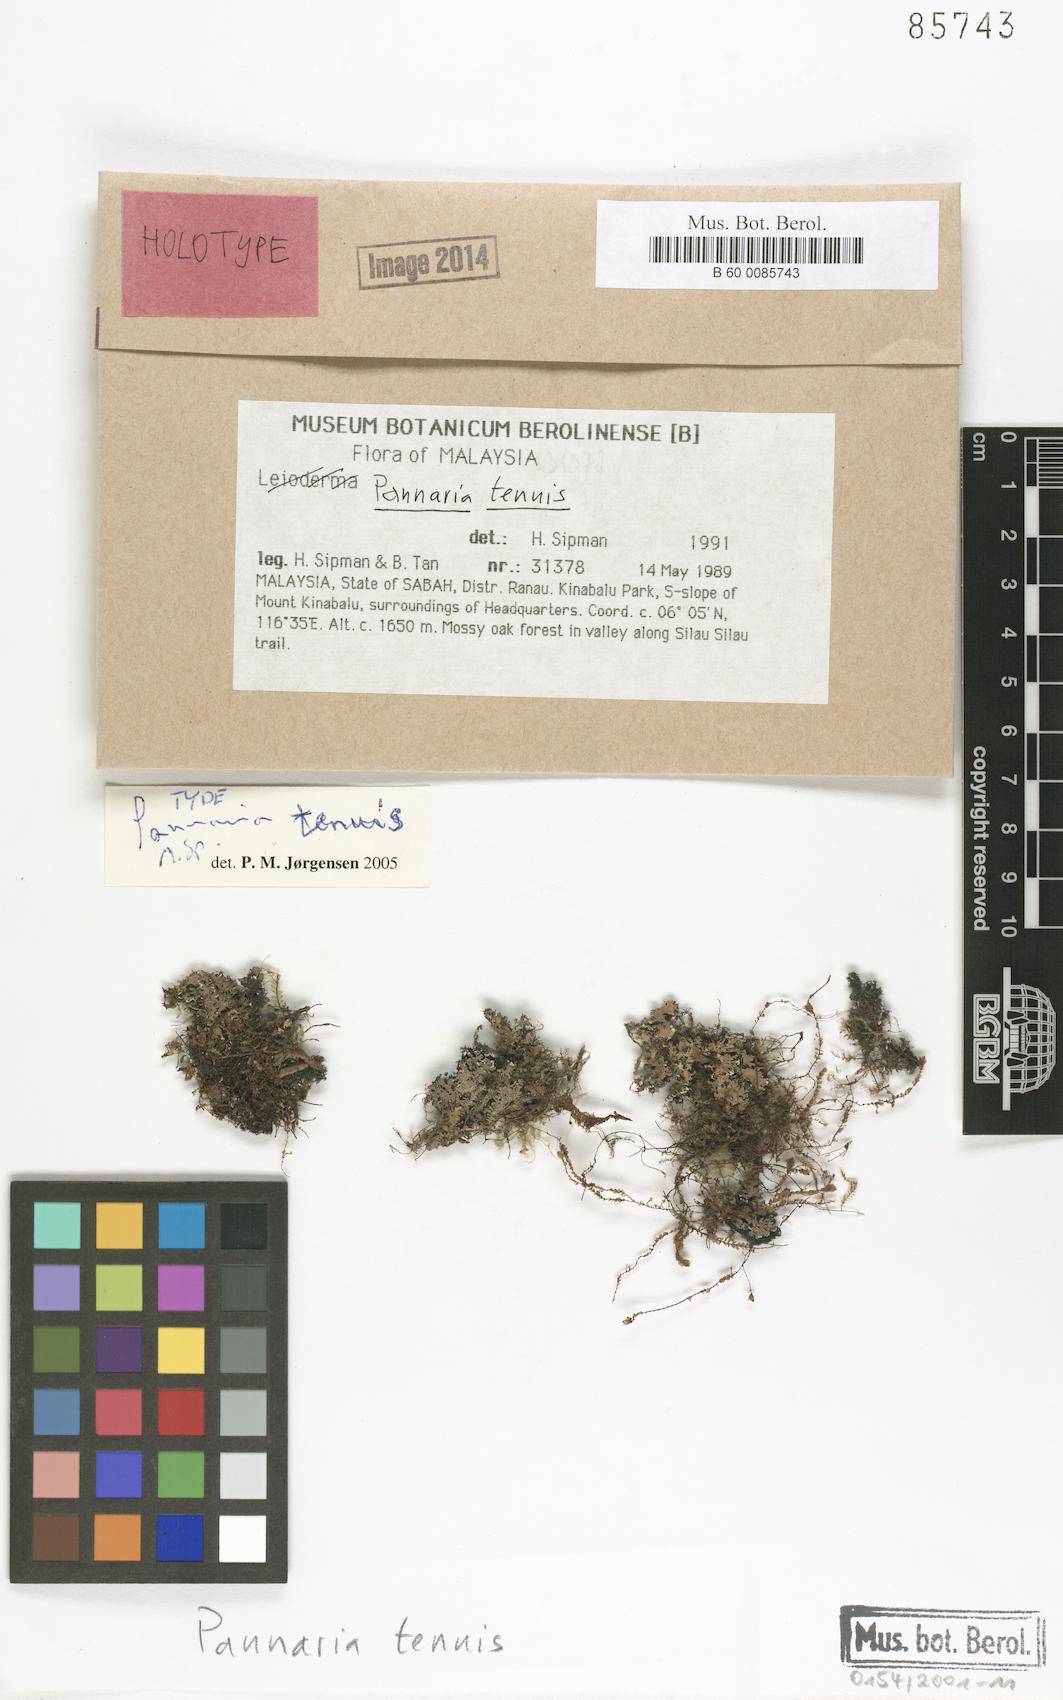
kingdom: Fungi
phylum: Ascomycota
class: Lecanoromycetes
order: Peltigerales
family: Pannariaceae
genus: Pannaria
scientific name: Pannaria tenuis
